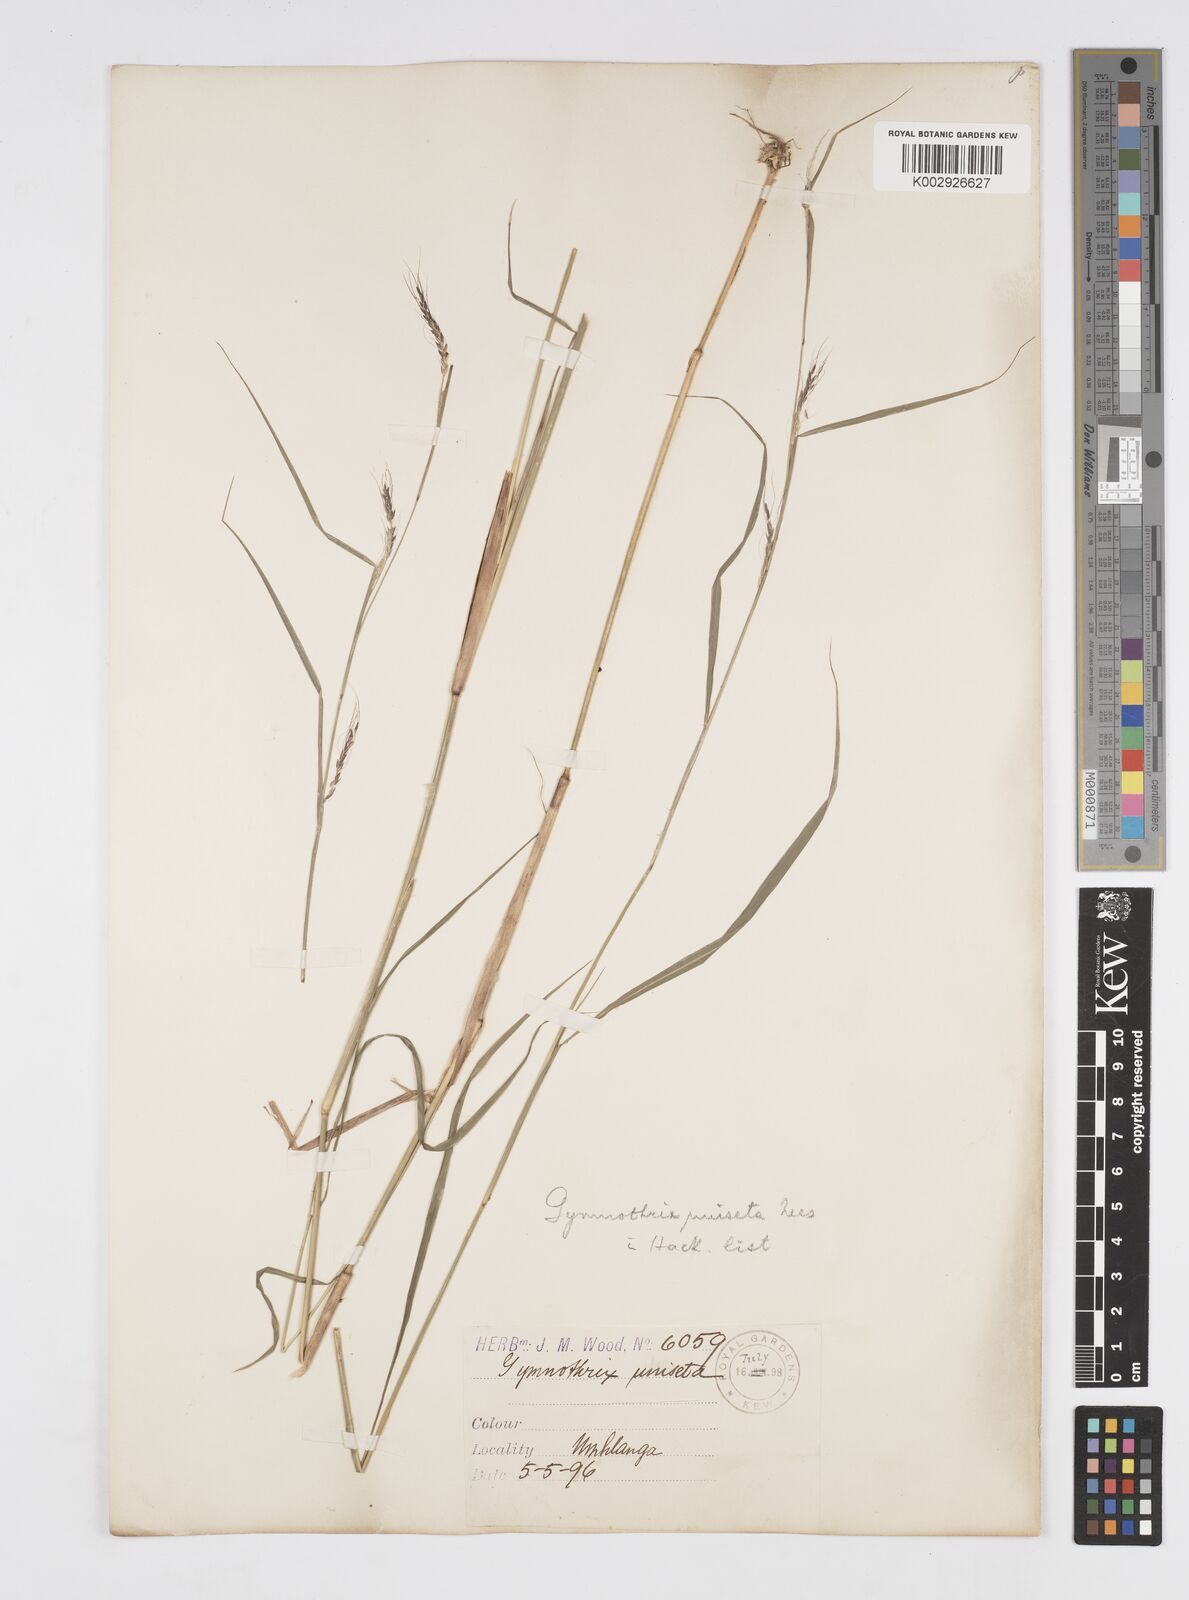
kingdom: Plantae
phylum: Tracheophyta
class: Liliopsida
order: Poales
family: Poaceae
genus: Cenchrus
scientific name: Cenchrus unisetus
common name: Natal grass
